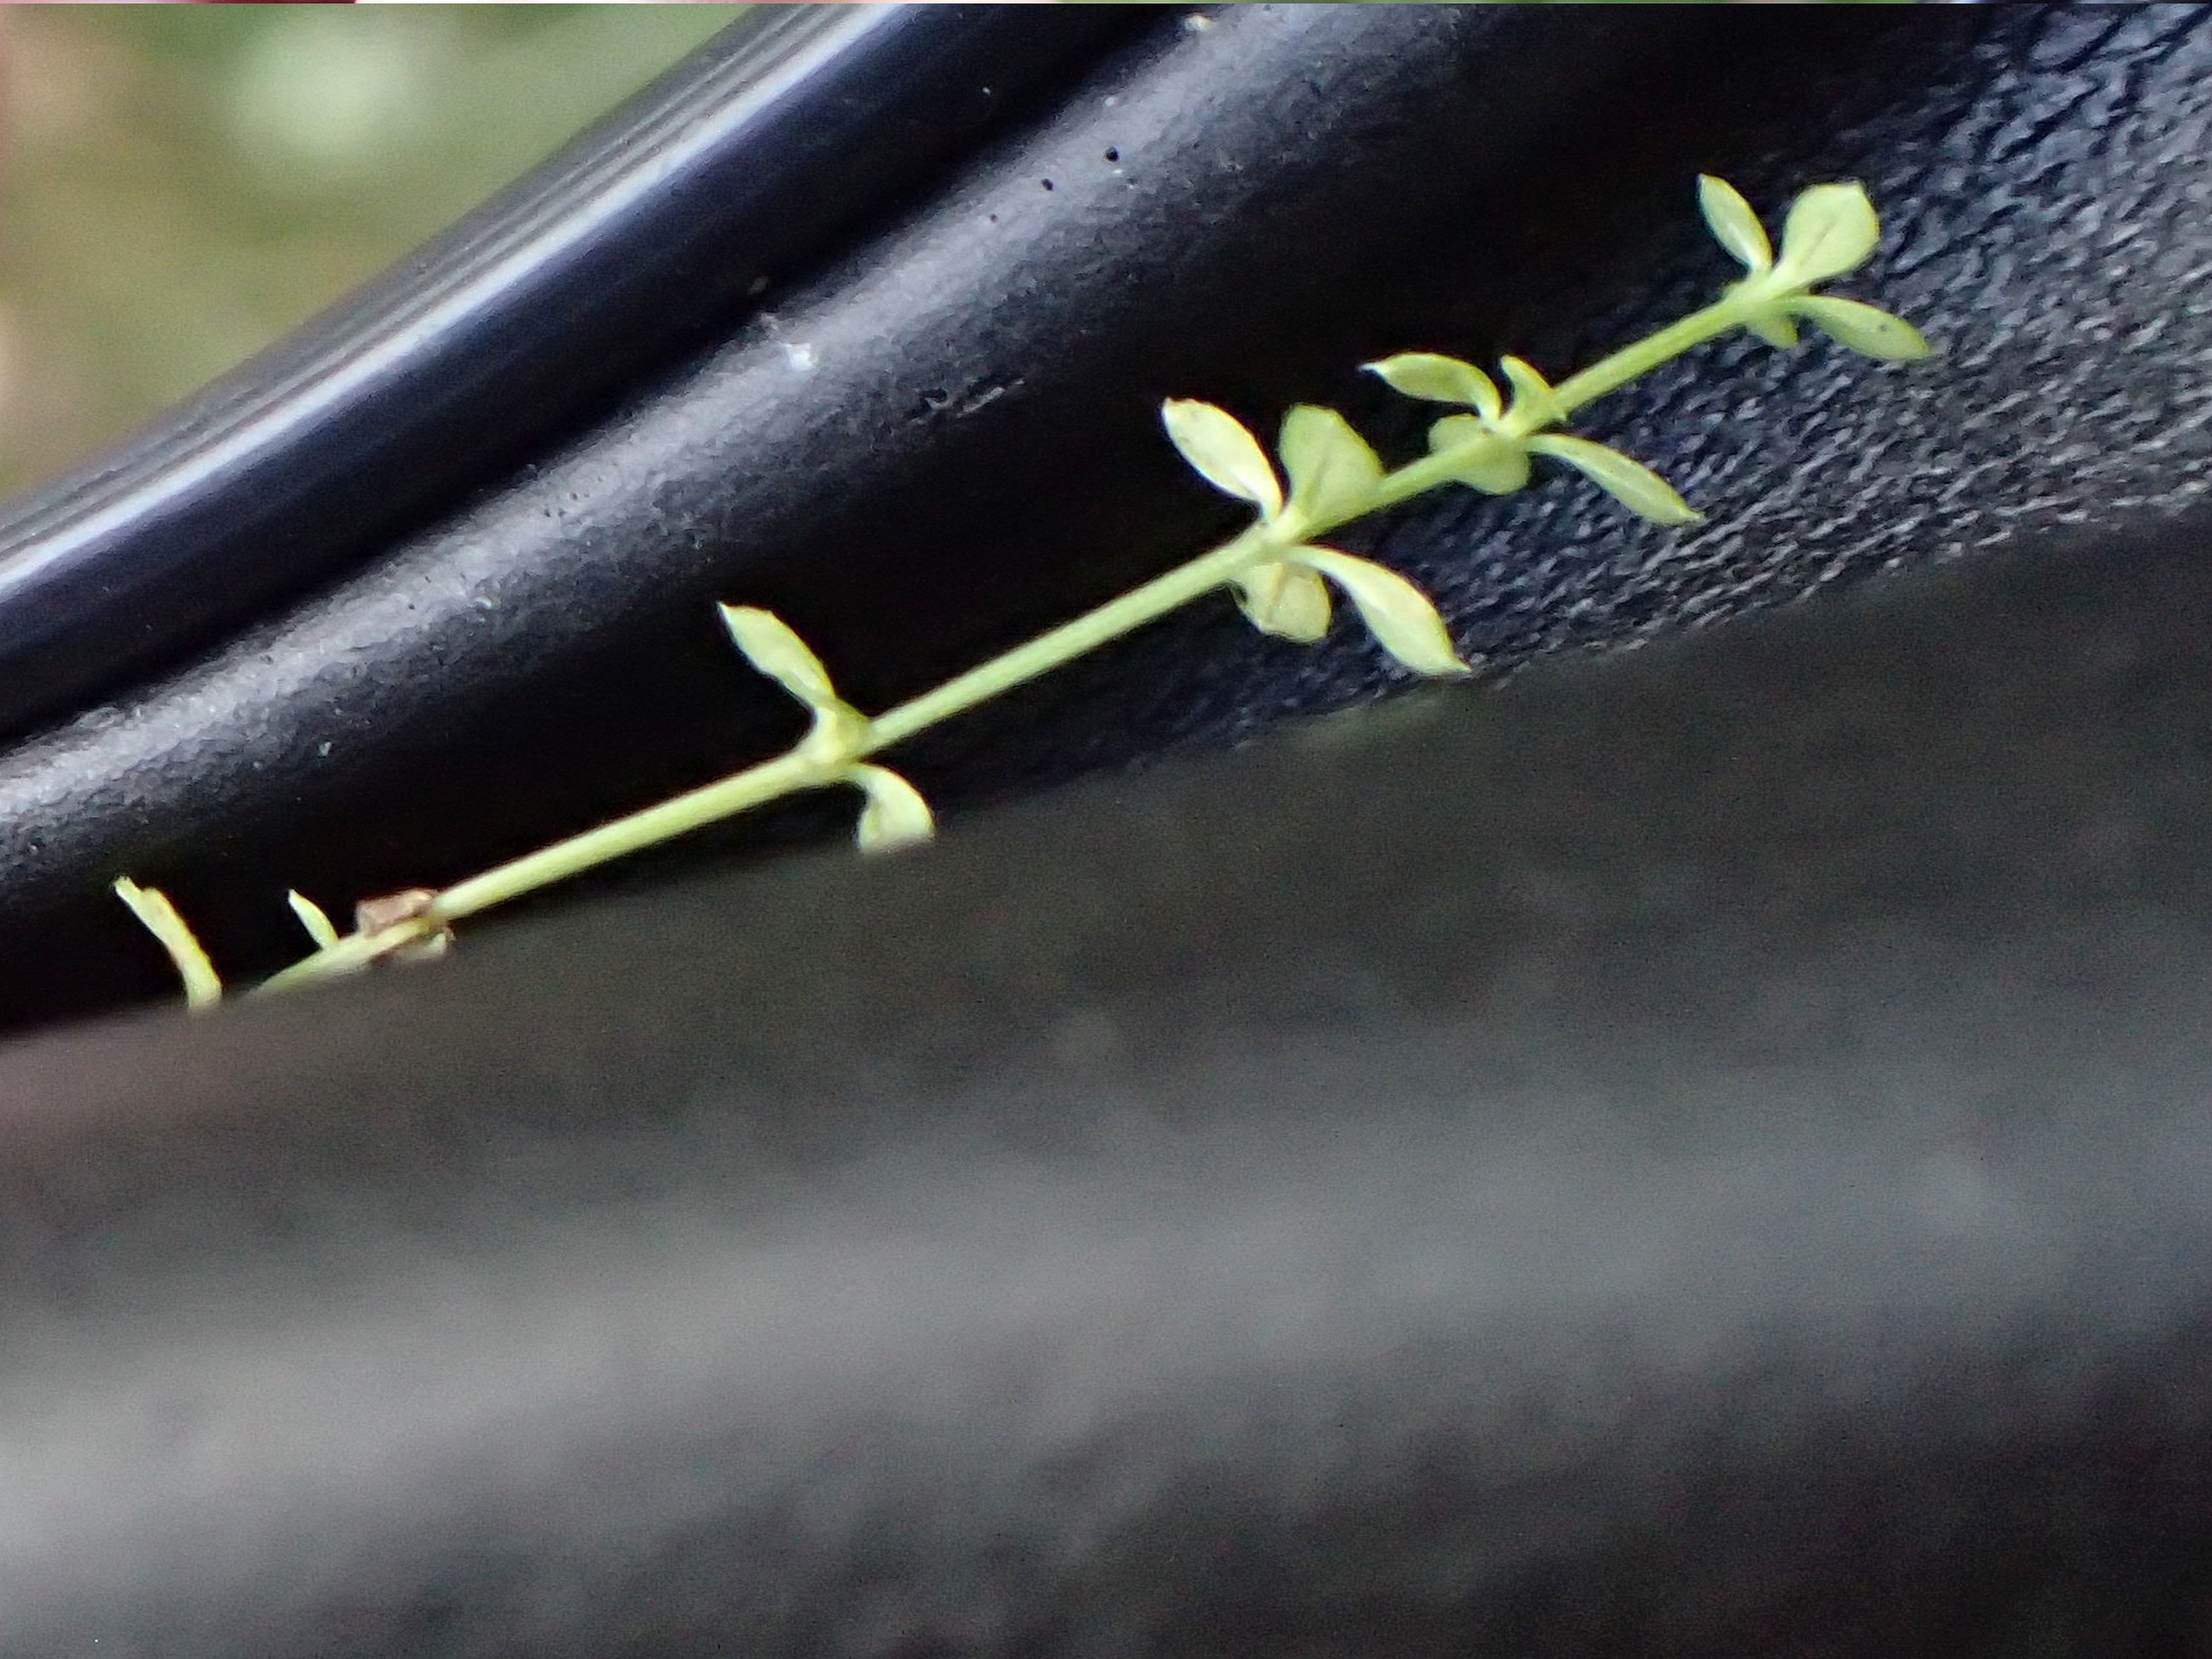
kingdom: Plantae
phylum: Tracheophyta
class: Magnoliopsida
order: Gentianales
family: Rubiaceae
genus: Galium
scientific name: Galium saxatile
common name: Lyng-snerre
